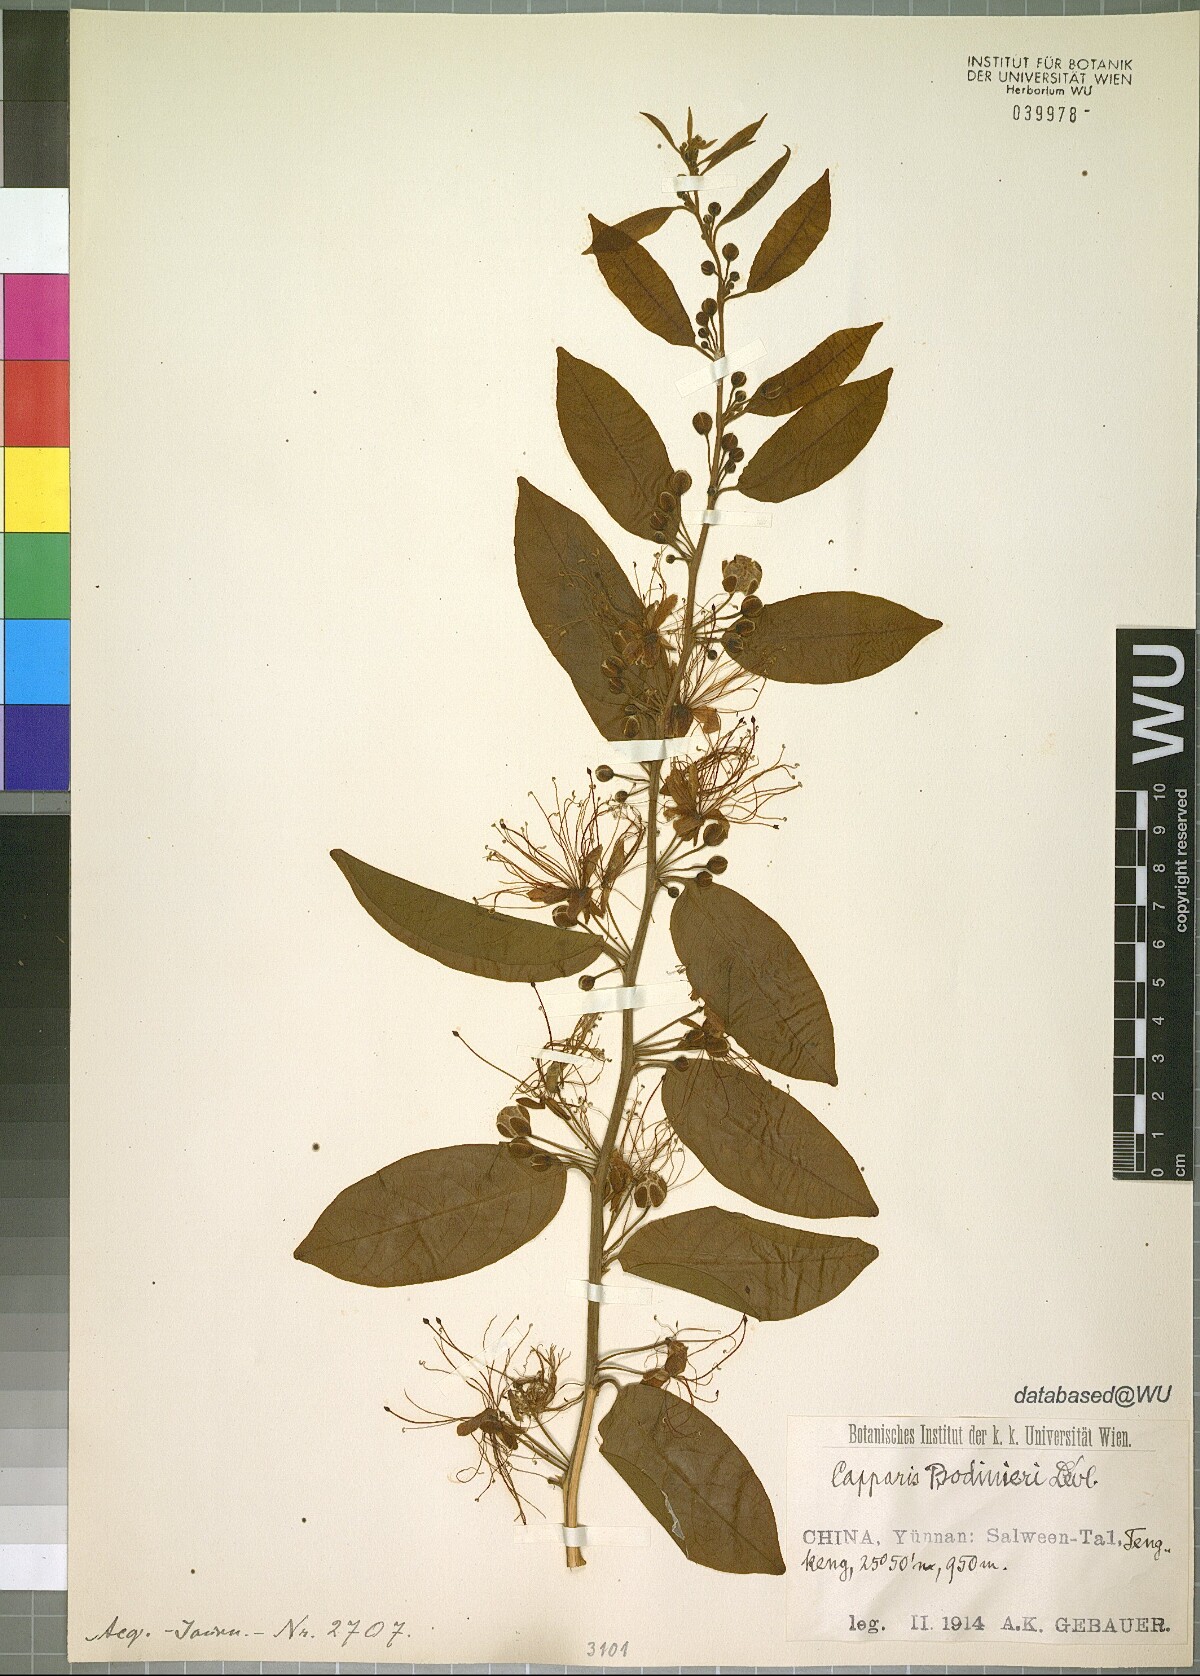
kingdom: Plantae
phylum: Tracheophyta
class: Magnoliopsida
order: Brassicales
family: Capparaceae
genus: Capparis
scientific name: Capparis bodinieri
